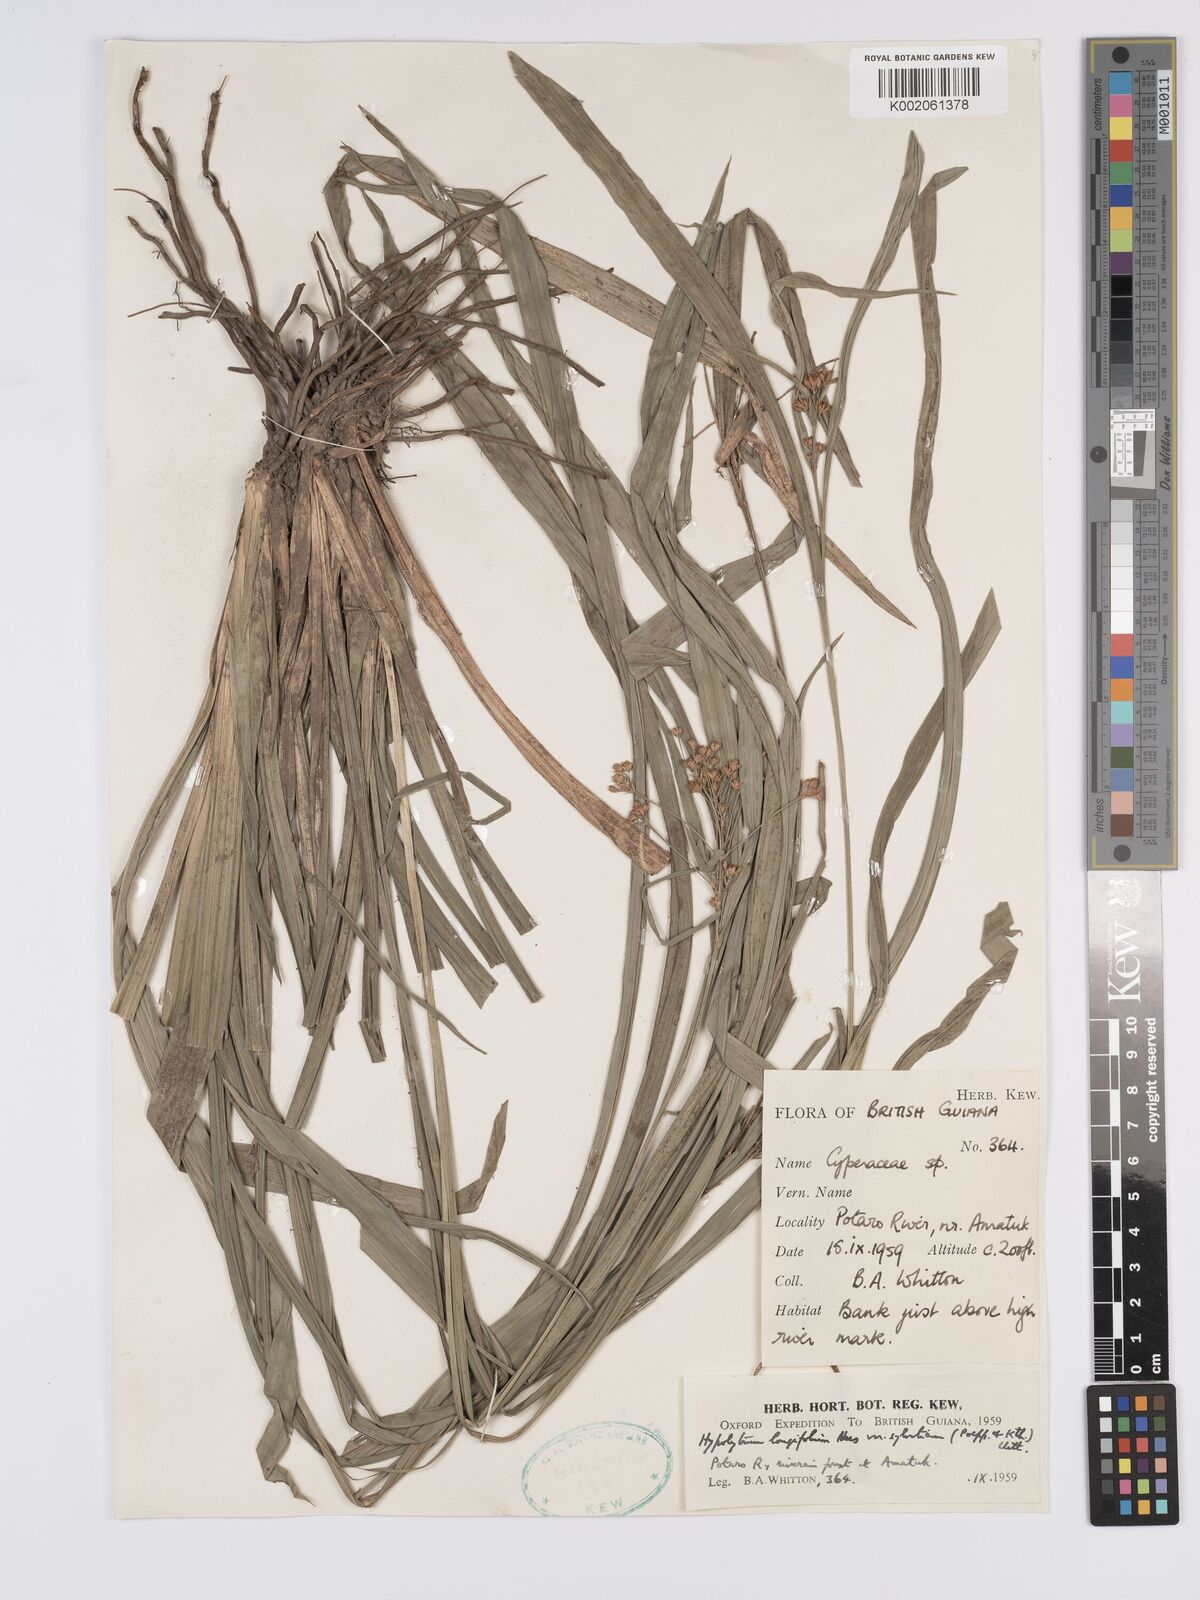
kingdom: Plantae
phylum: Tracheophyta
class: Liliopsida
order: Poales
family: Cyperaceae
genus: Hypolytrum
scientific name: Hypolytrum longifolium
